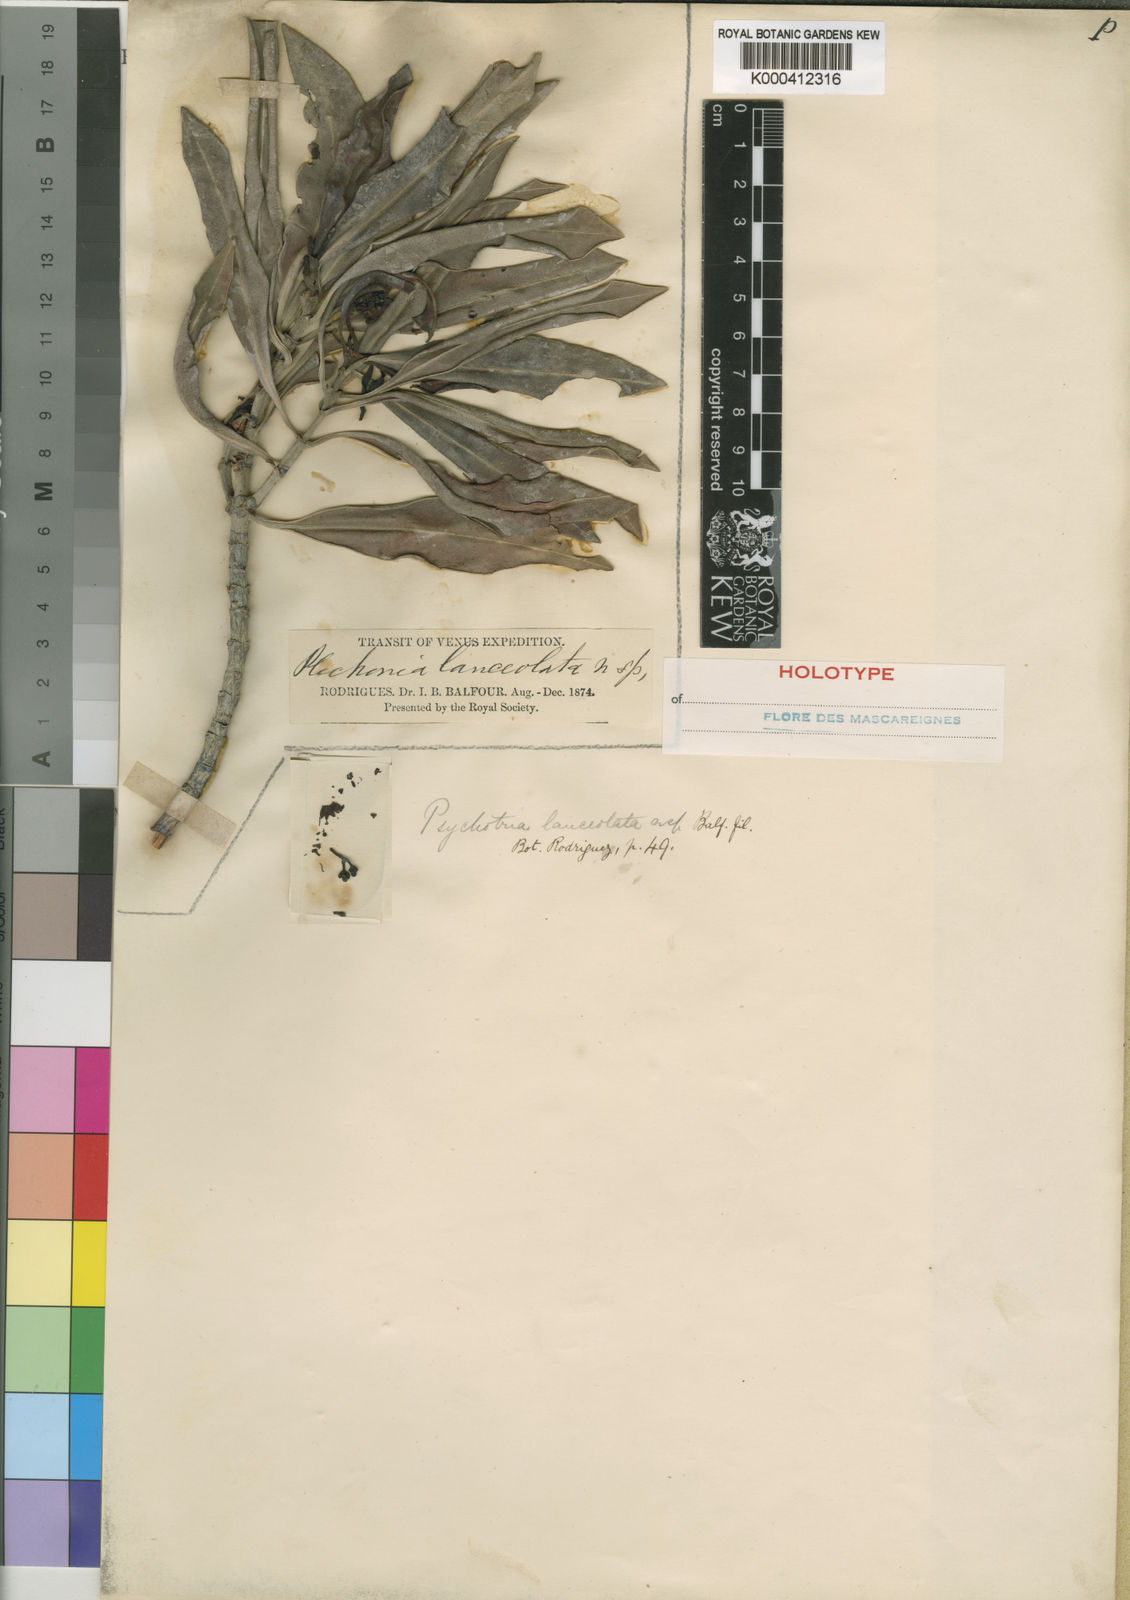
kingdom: Plantae
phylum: Tracheophyta
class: Magnoliopsida
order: Gentianales
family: Rubiaceae
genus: Psychotria
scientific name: Psychotria balfouriana
